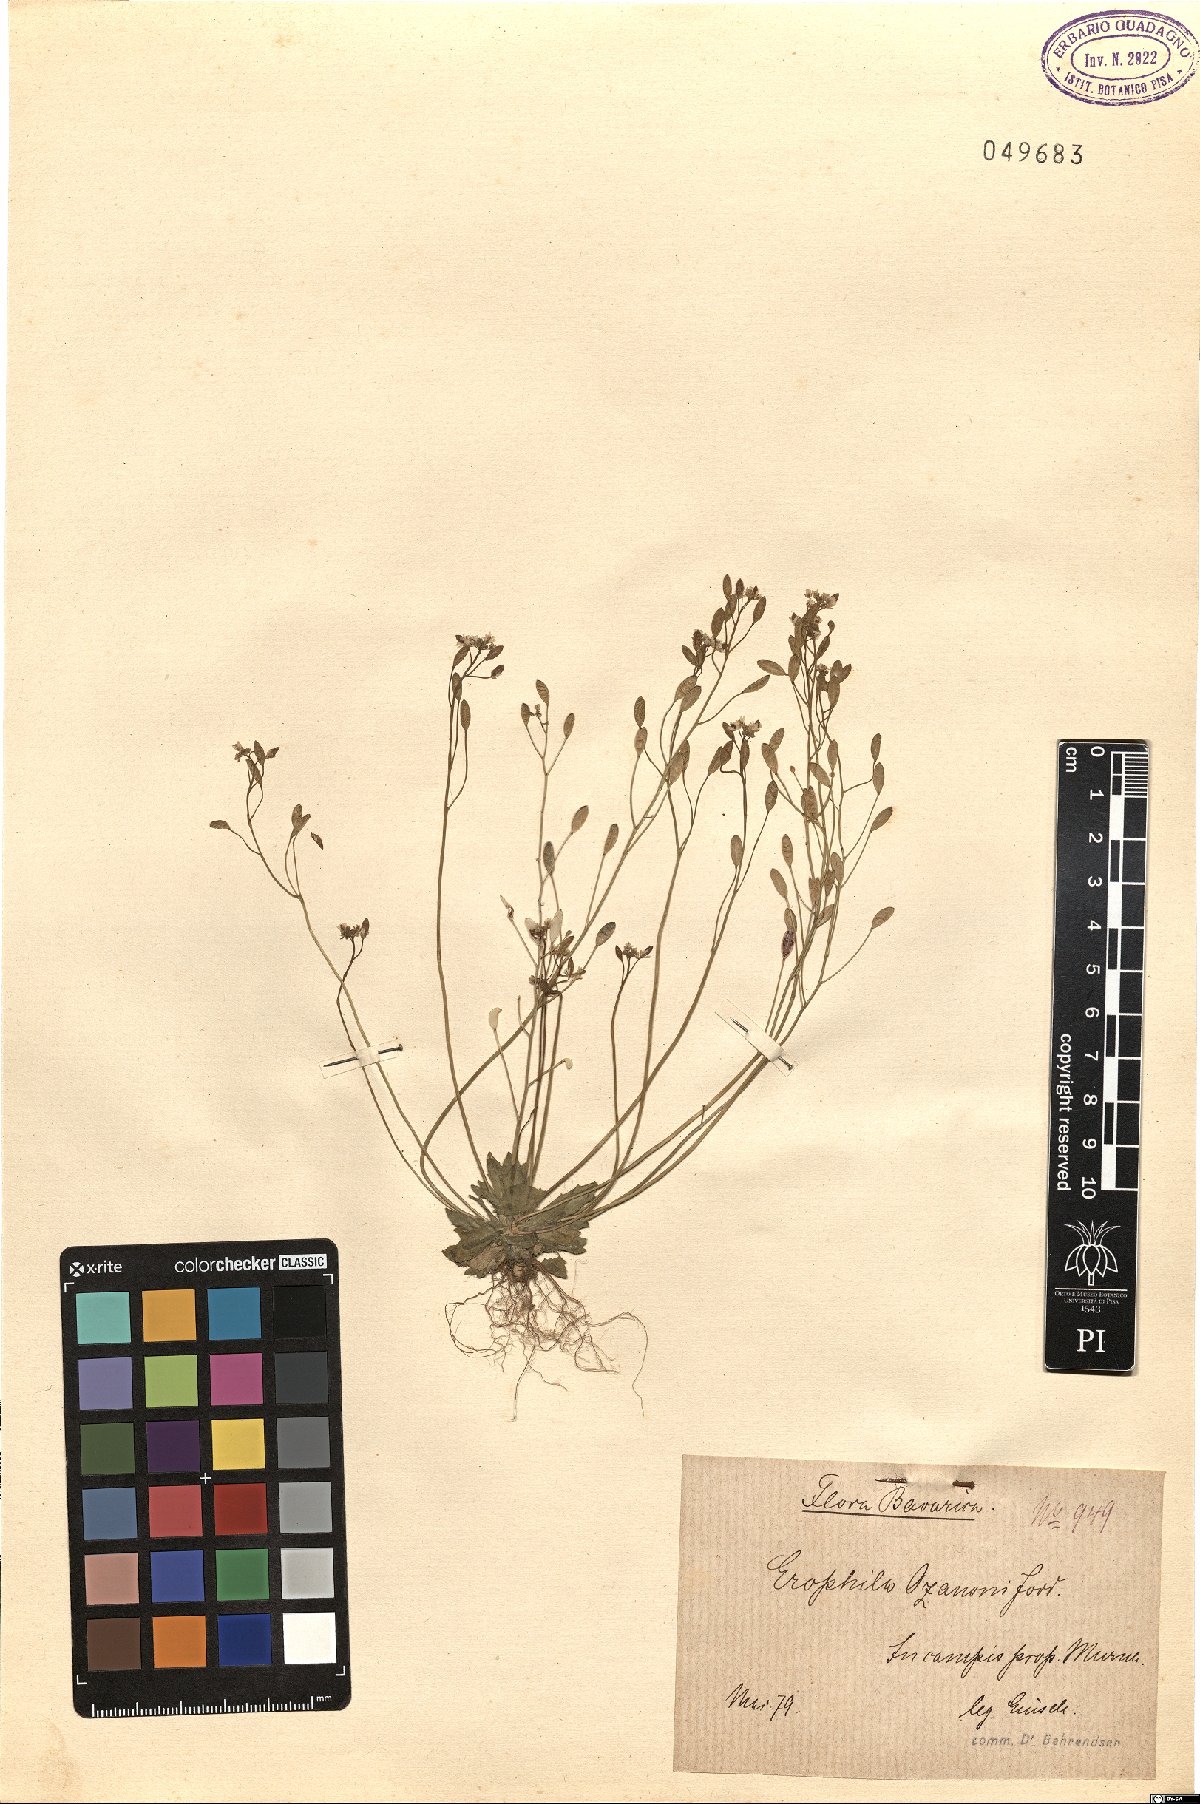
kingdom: Plantae
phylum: Tracheophyta
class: Magnoliopsida
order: Brassicales
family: Brassicaceae
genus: Draba
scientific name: Draba verna
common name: Spring draba
